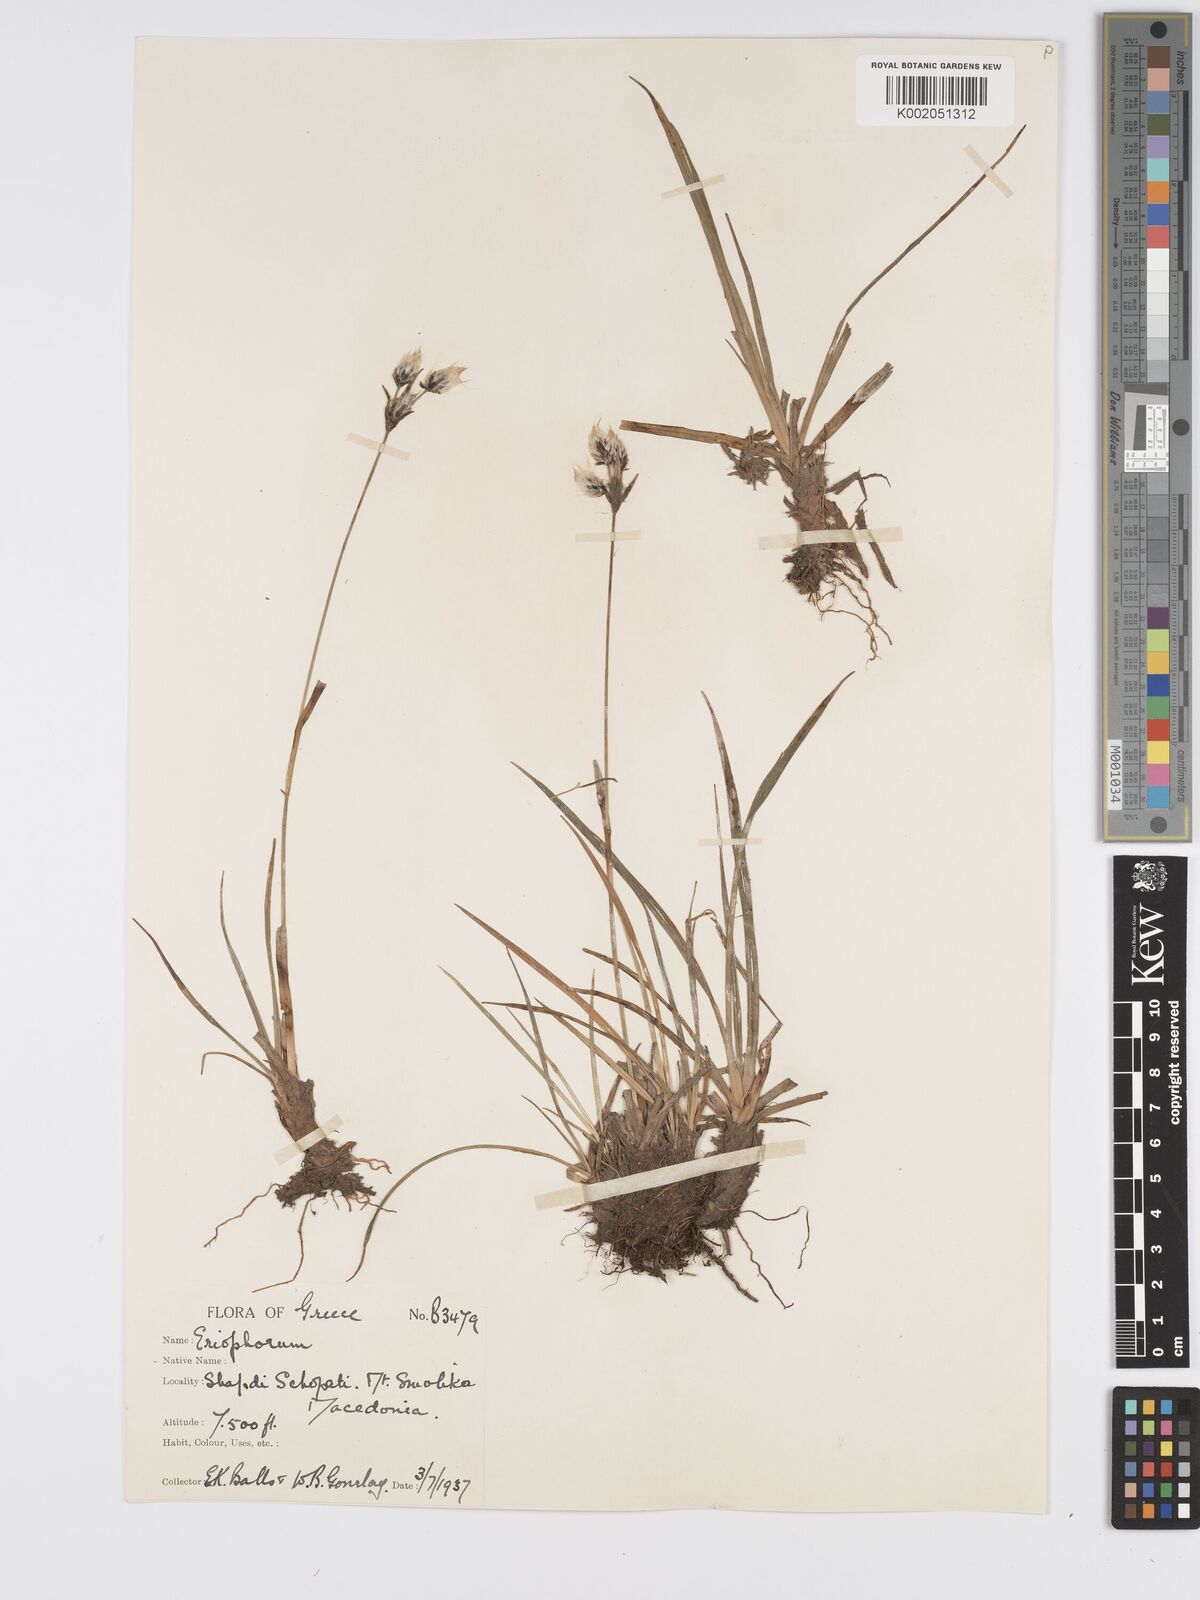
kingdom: Plantae
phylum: Tracheophyta
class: Liliopsida
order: Poales
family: Cyperaceae
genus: Eriophorum
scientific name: Eriophorum latifolium
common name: Broad-leaved cottongrass
